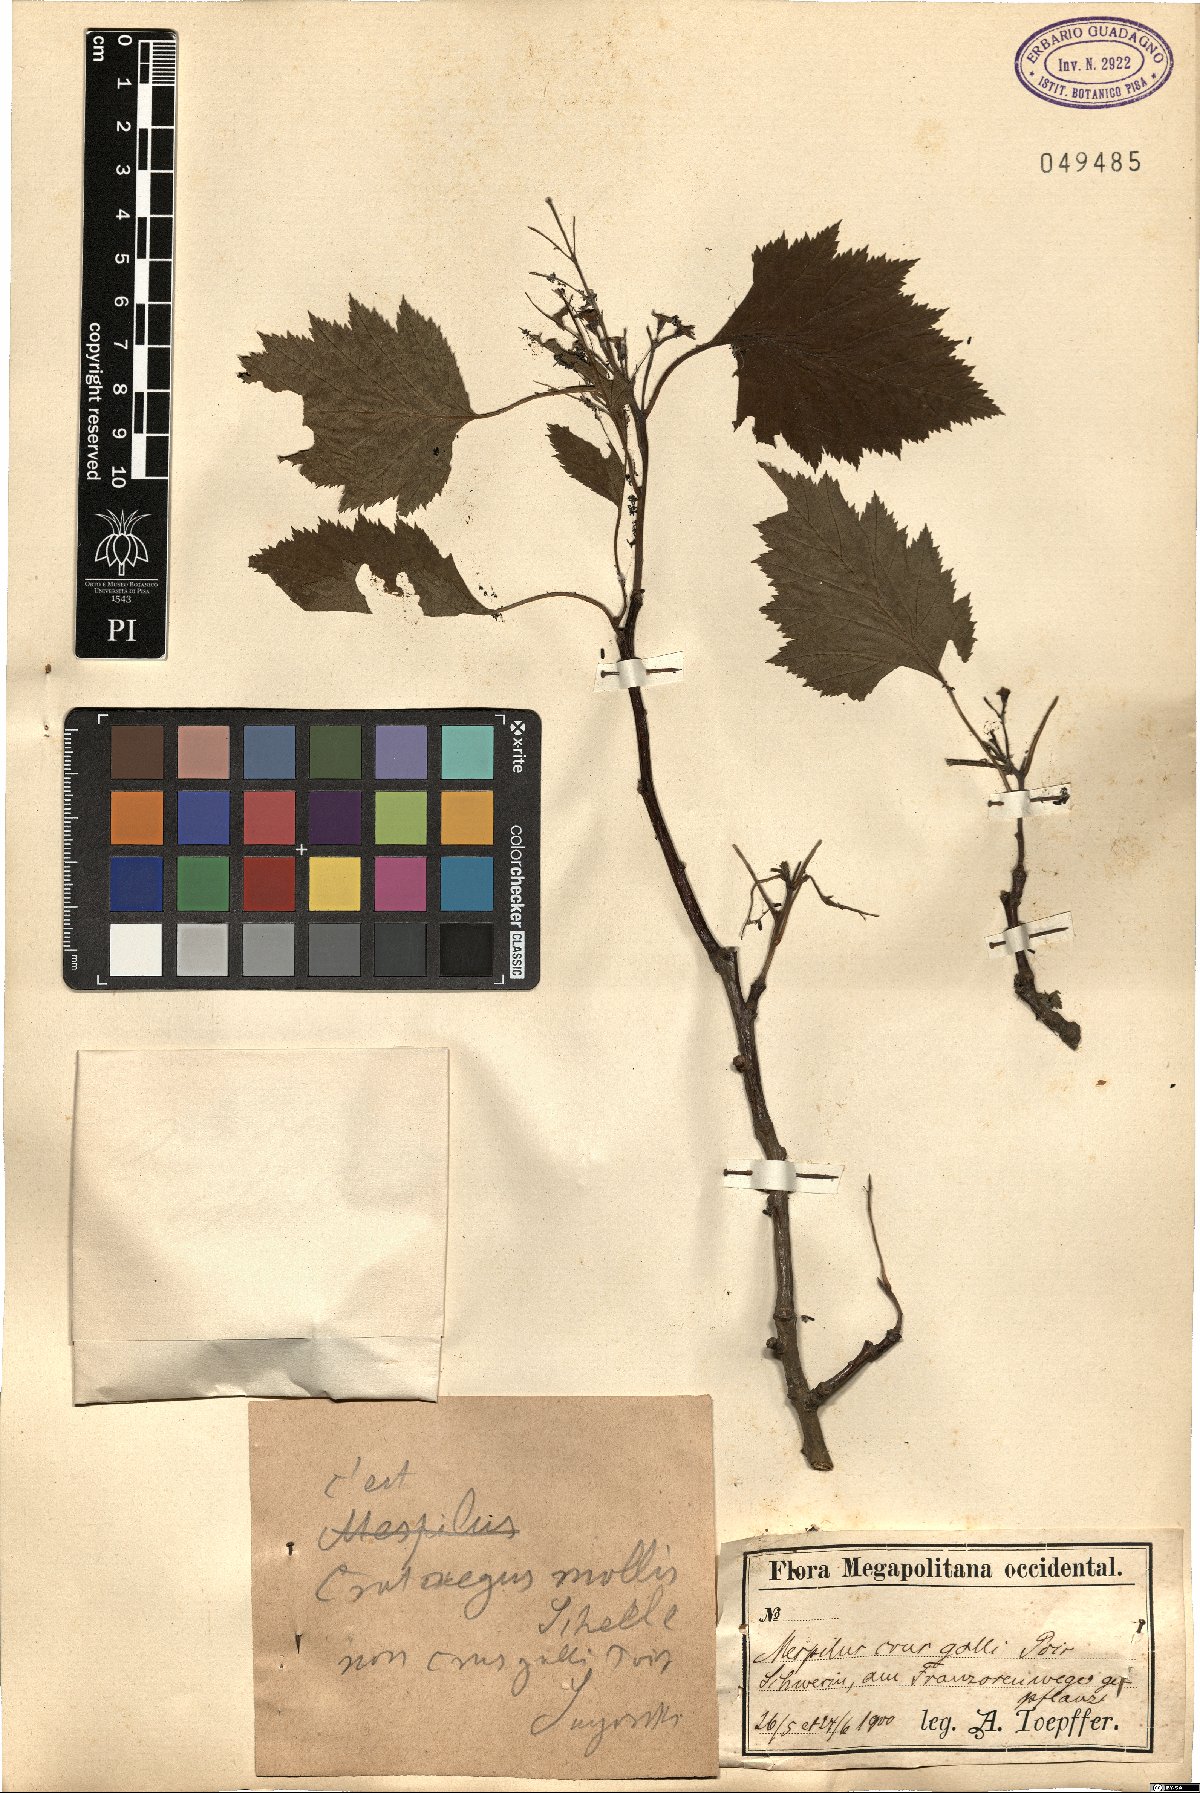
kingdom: Plantae
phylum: Tracheophyta
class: Magnoliopsida
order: Rosales
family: Rosaceae
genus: Crataegus
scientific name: Crataegus mollis
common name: Downy hawthorn
